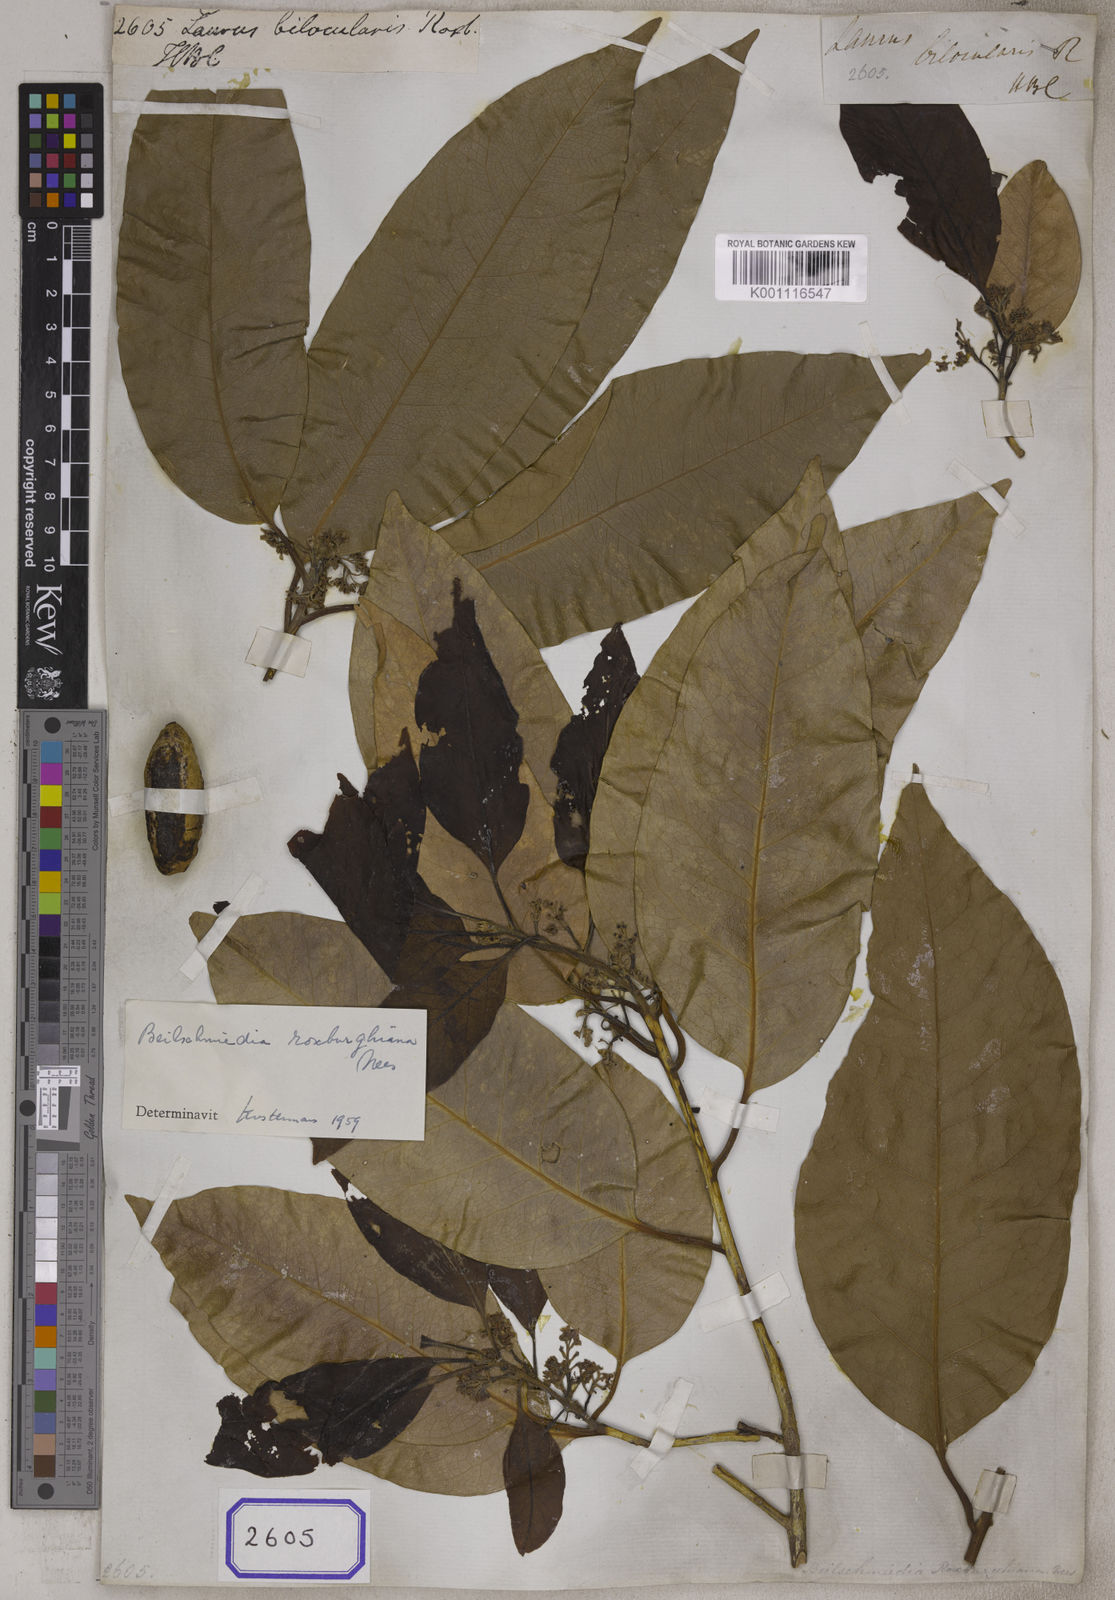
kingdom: Plantae
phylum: Tracheophyta
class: Magnoliopsida
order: Laurales
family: Lauraceae
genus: Beilschmiedia
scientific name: Beilschmiedia roxburghiana
